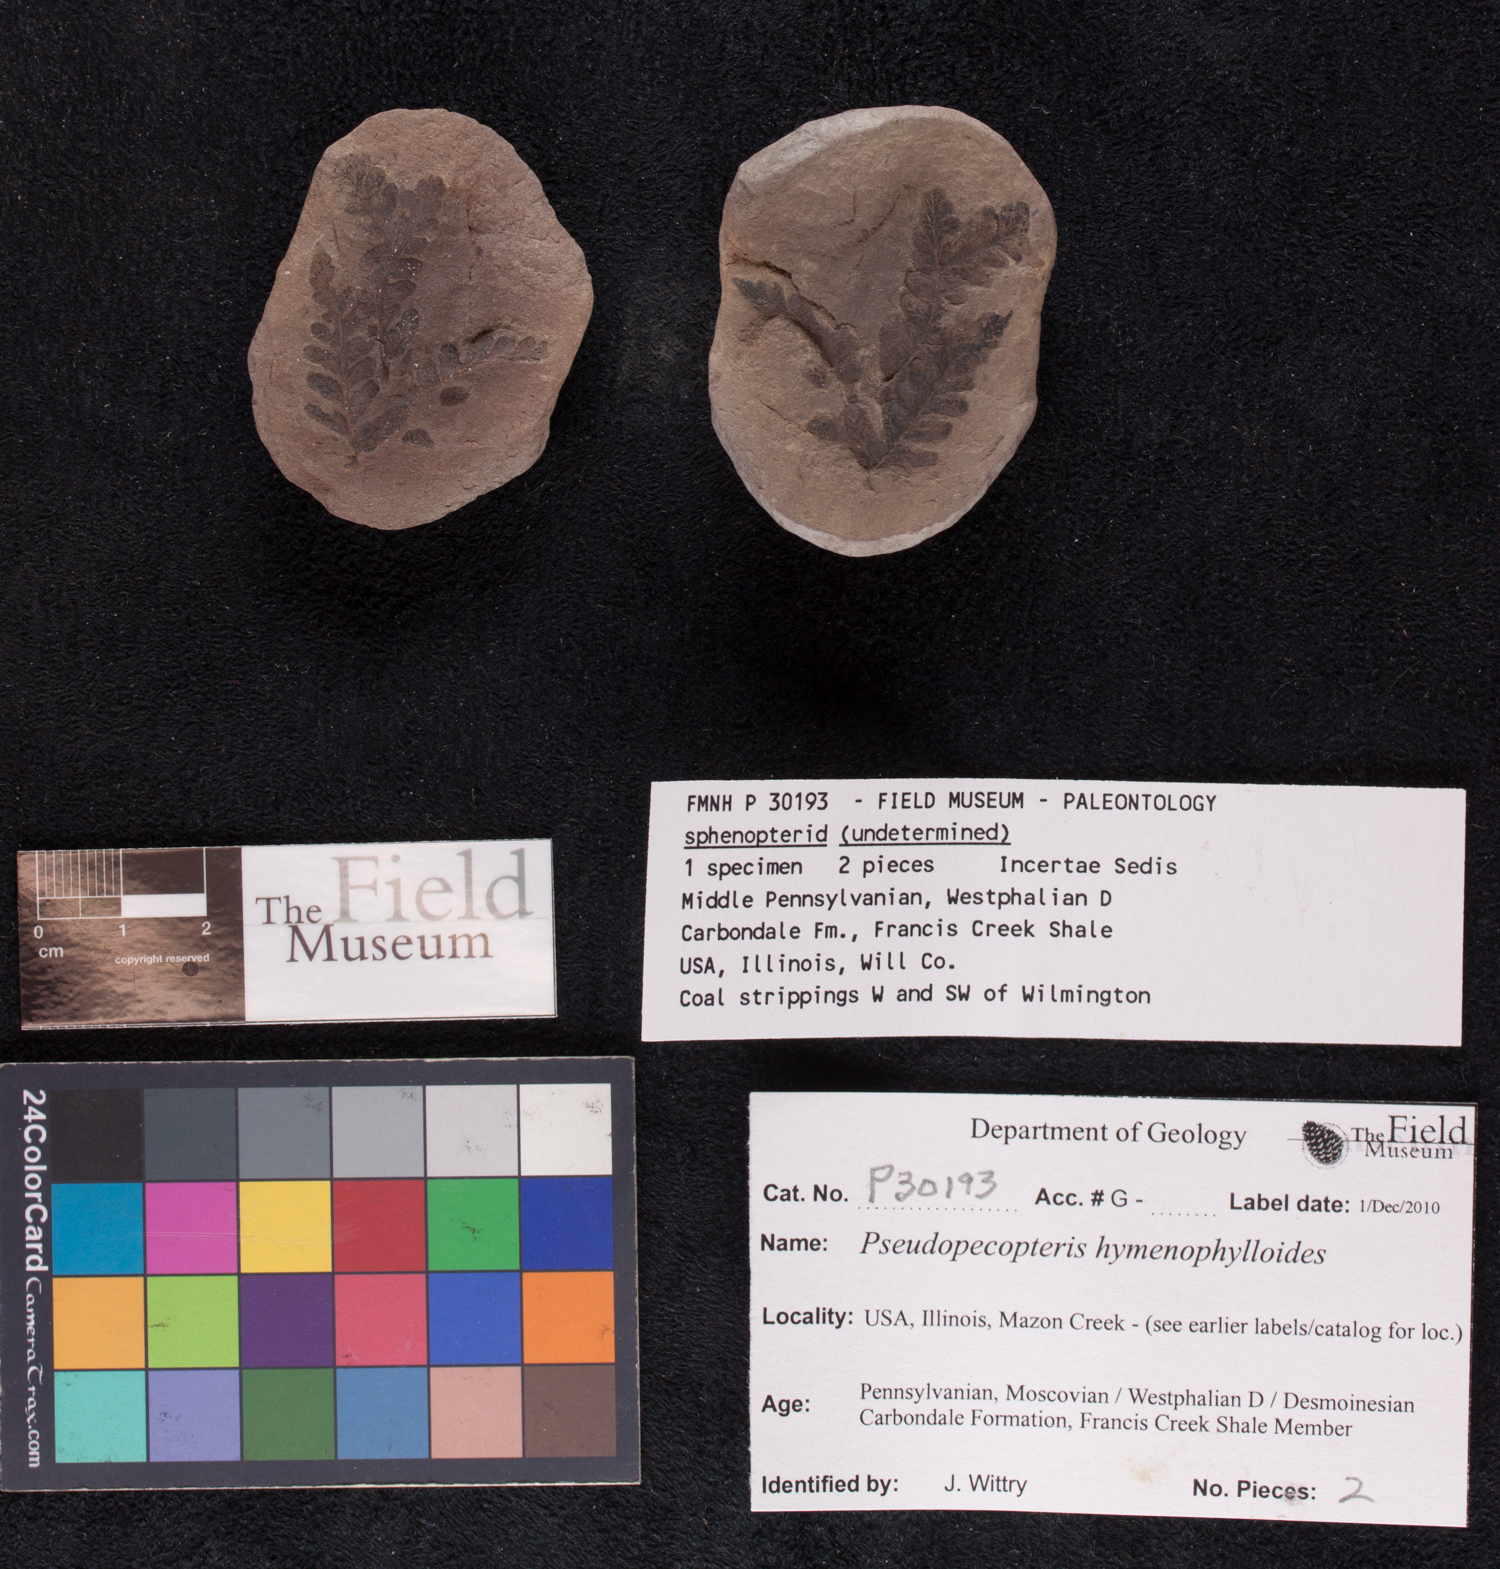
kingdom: Plantae
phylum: Tracheophyta
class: Polypodiopsida
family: Stauropteridaceae
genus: Crossotheca
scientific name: Crossotheca
